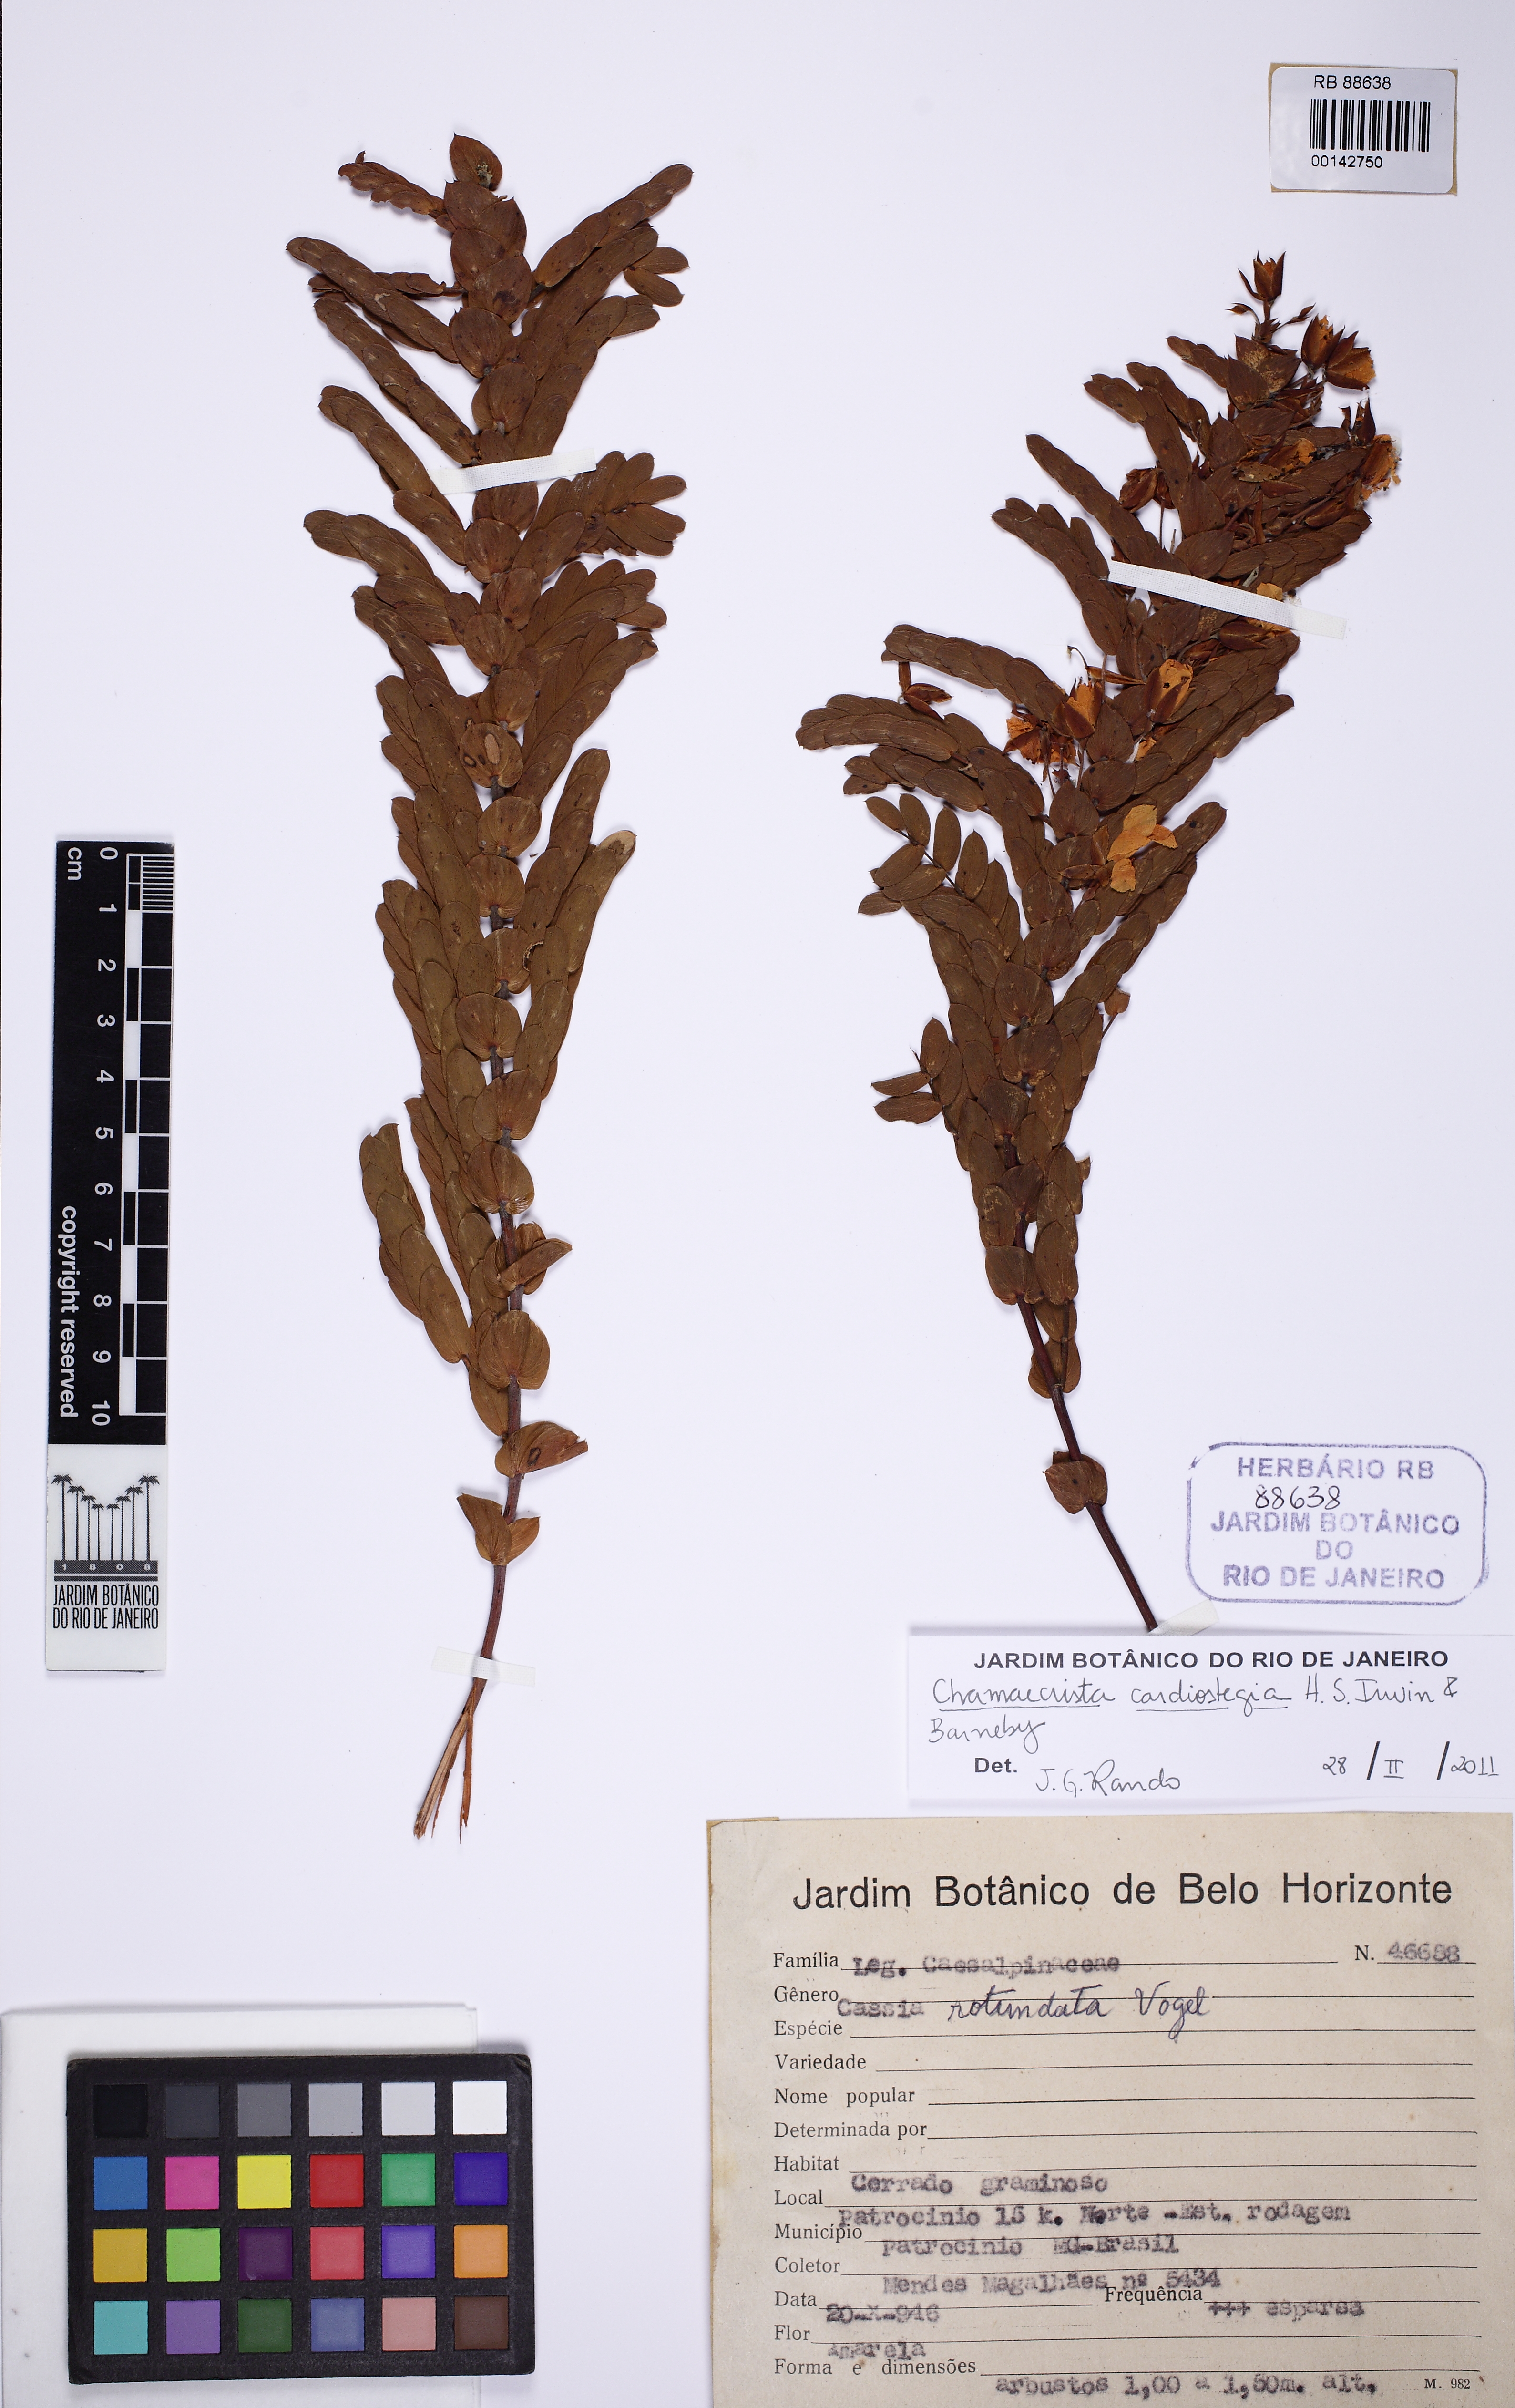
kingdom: Plantae
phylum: Tracheophyta
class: Magnoliopsida
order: Fabales
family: Fabaceae
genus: Chamaecrista
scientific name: Chamaecrista cardiostegia
